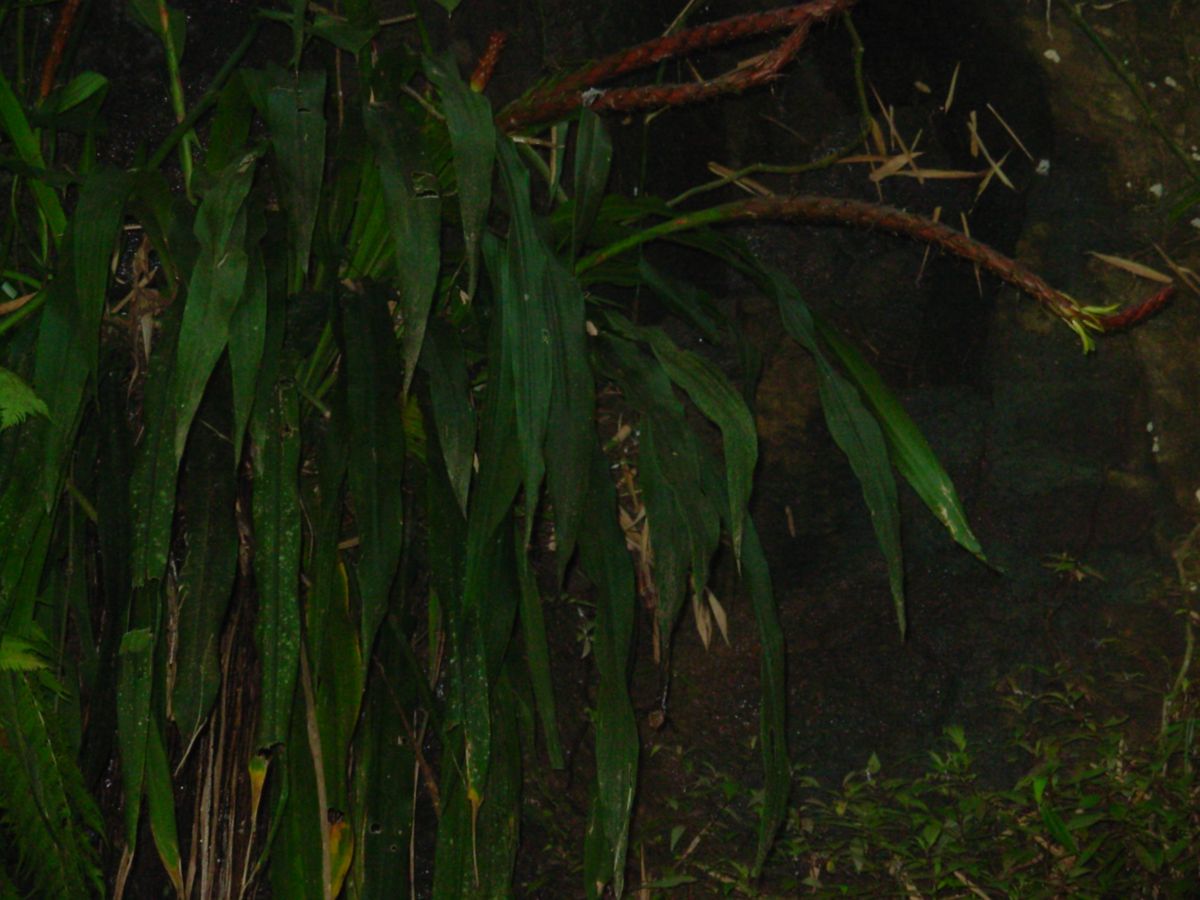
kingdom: Plantae
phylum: Tracheophyta
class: Liliopsida
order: Poales
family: Bromeliaceae
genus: Pitcairnia
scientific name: Pitcairnia imbricata
